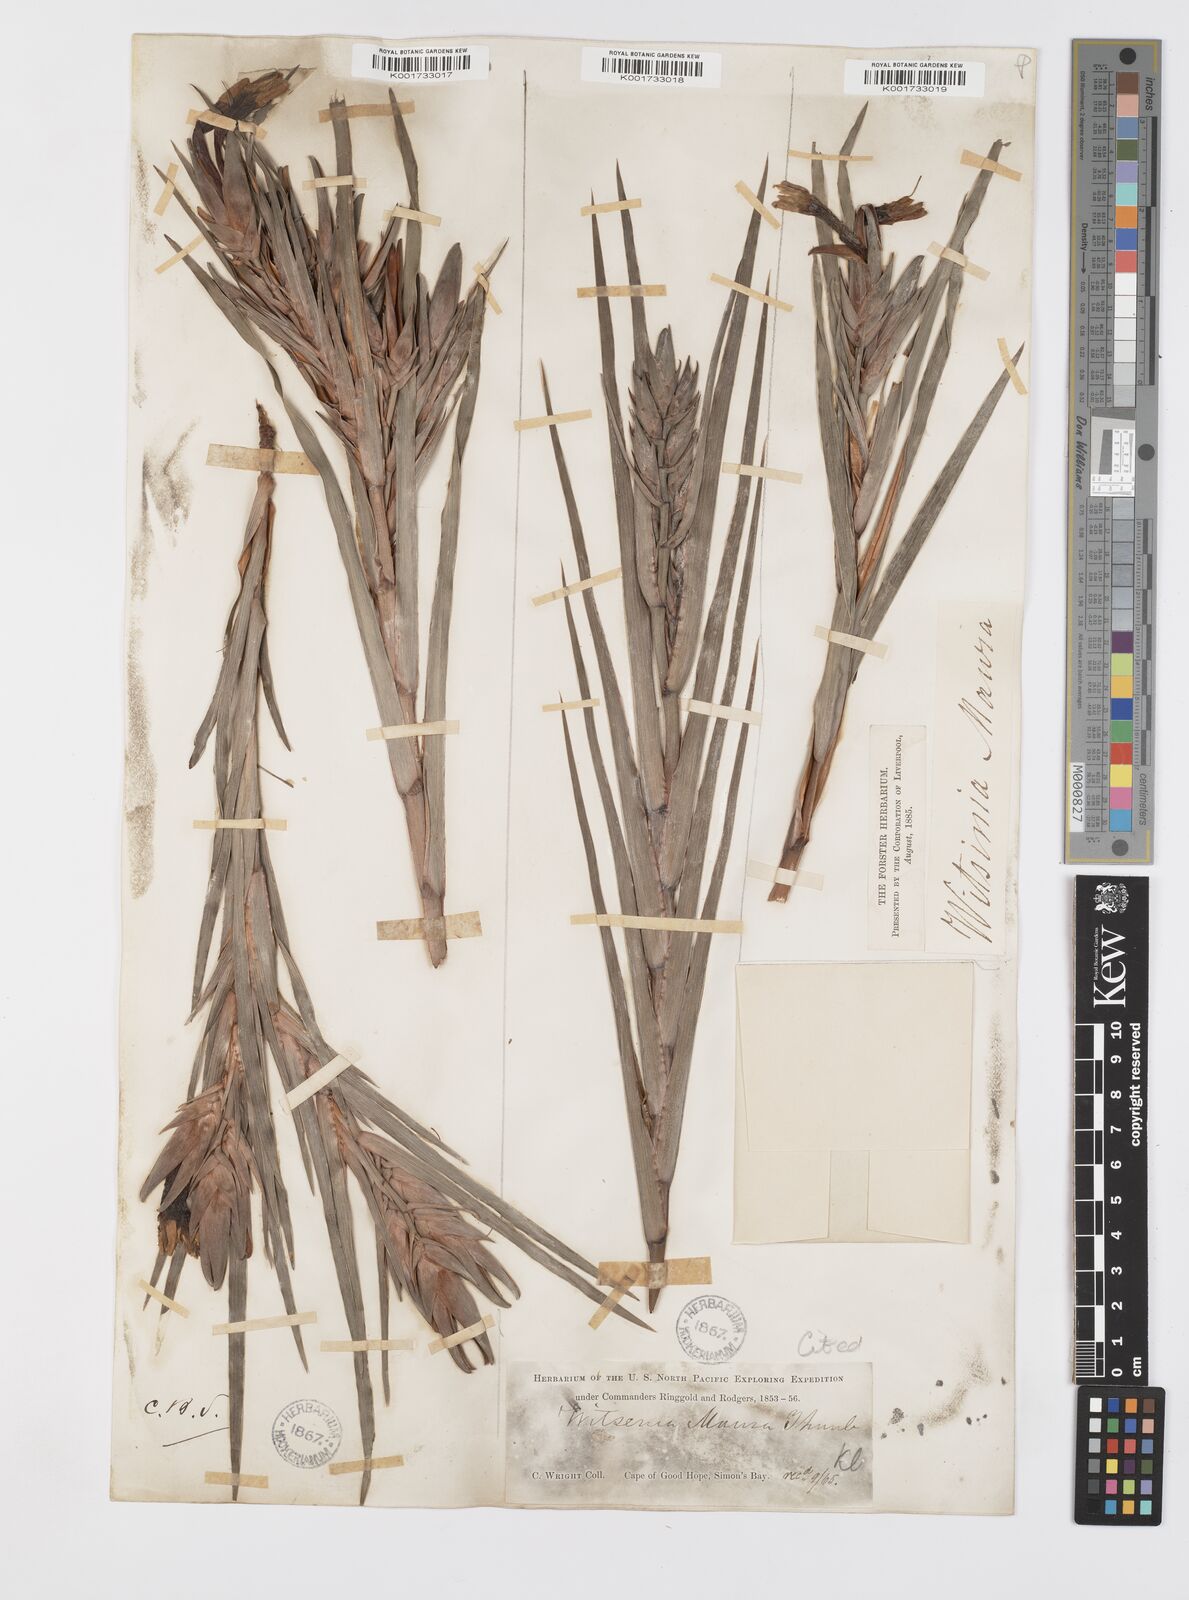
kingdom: Plantae
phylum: Tracheophyta
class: Liliopsida
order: Asparagales
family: Iridaceae
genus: Witsenia
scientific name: Witsenia maura
